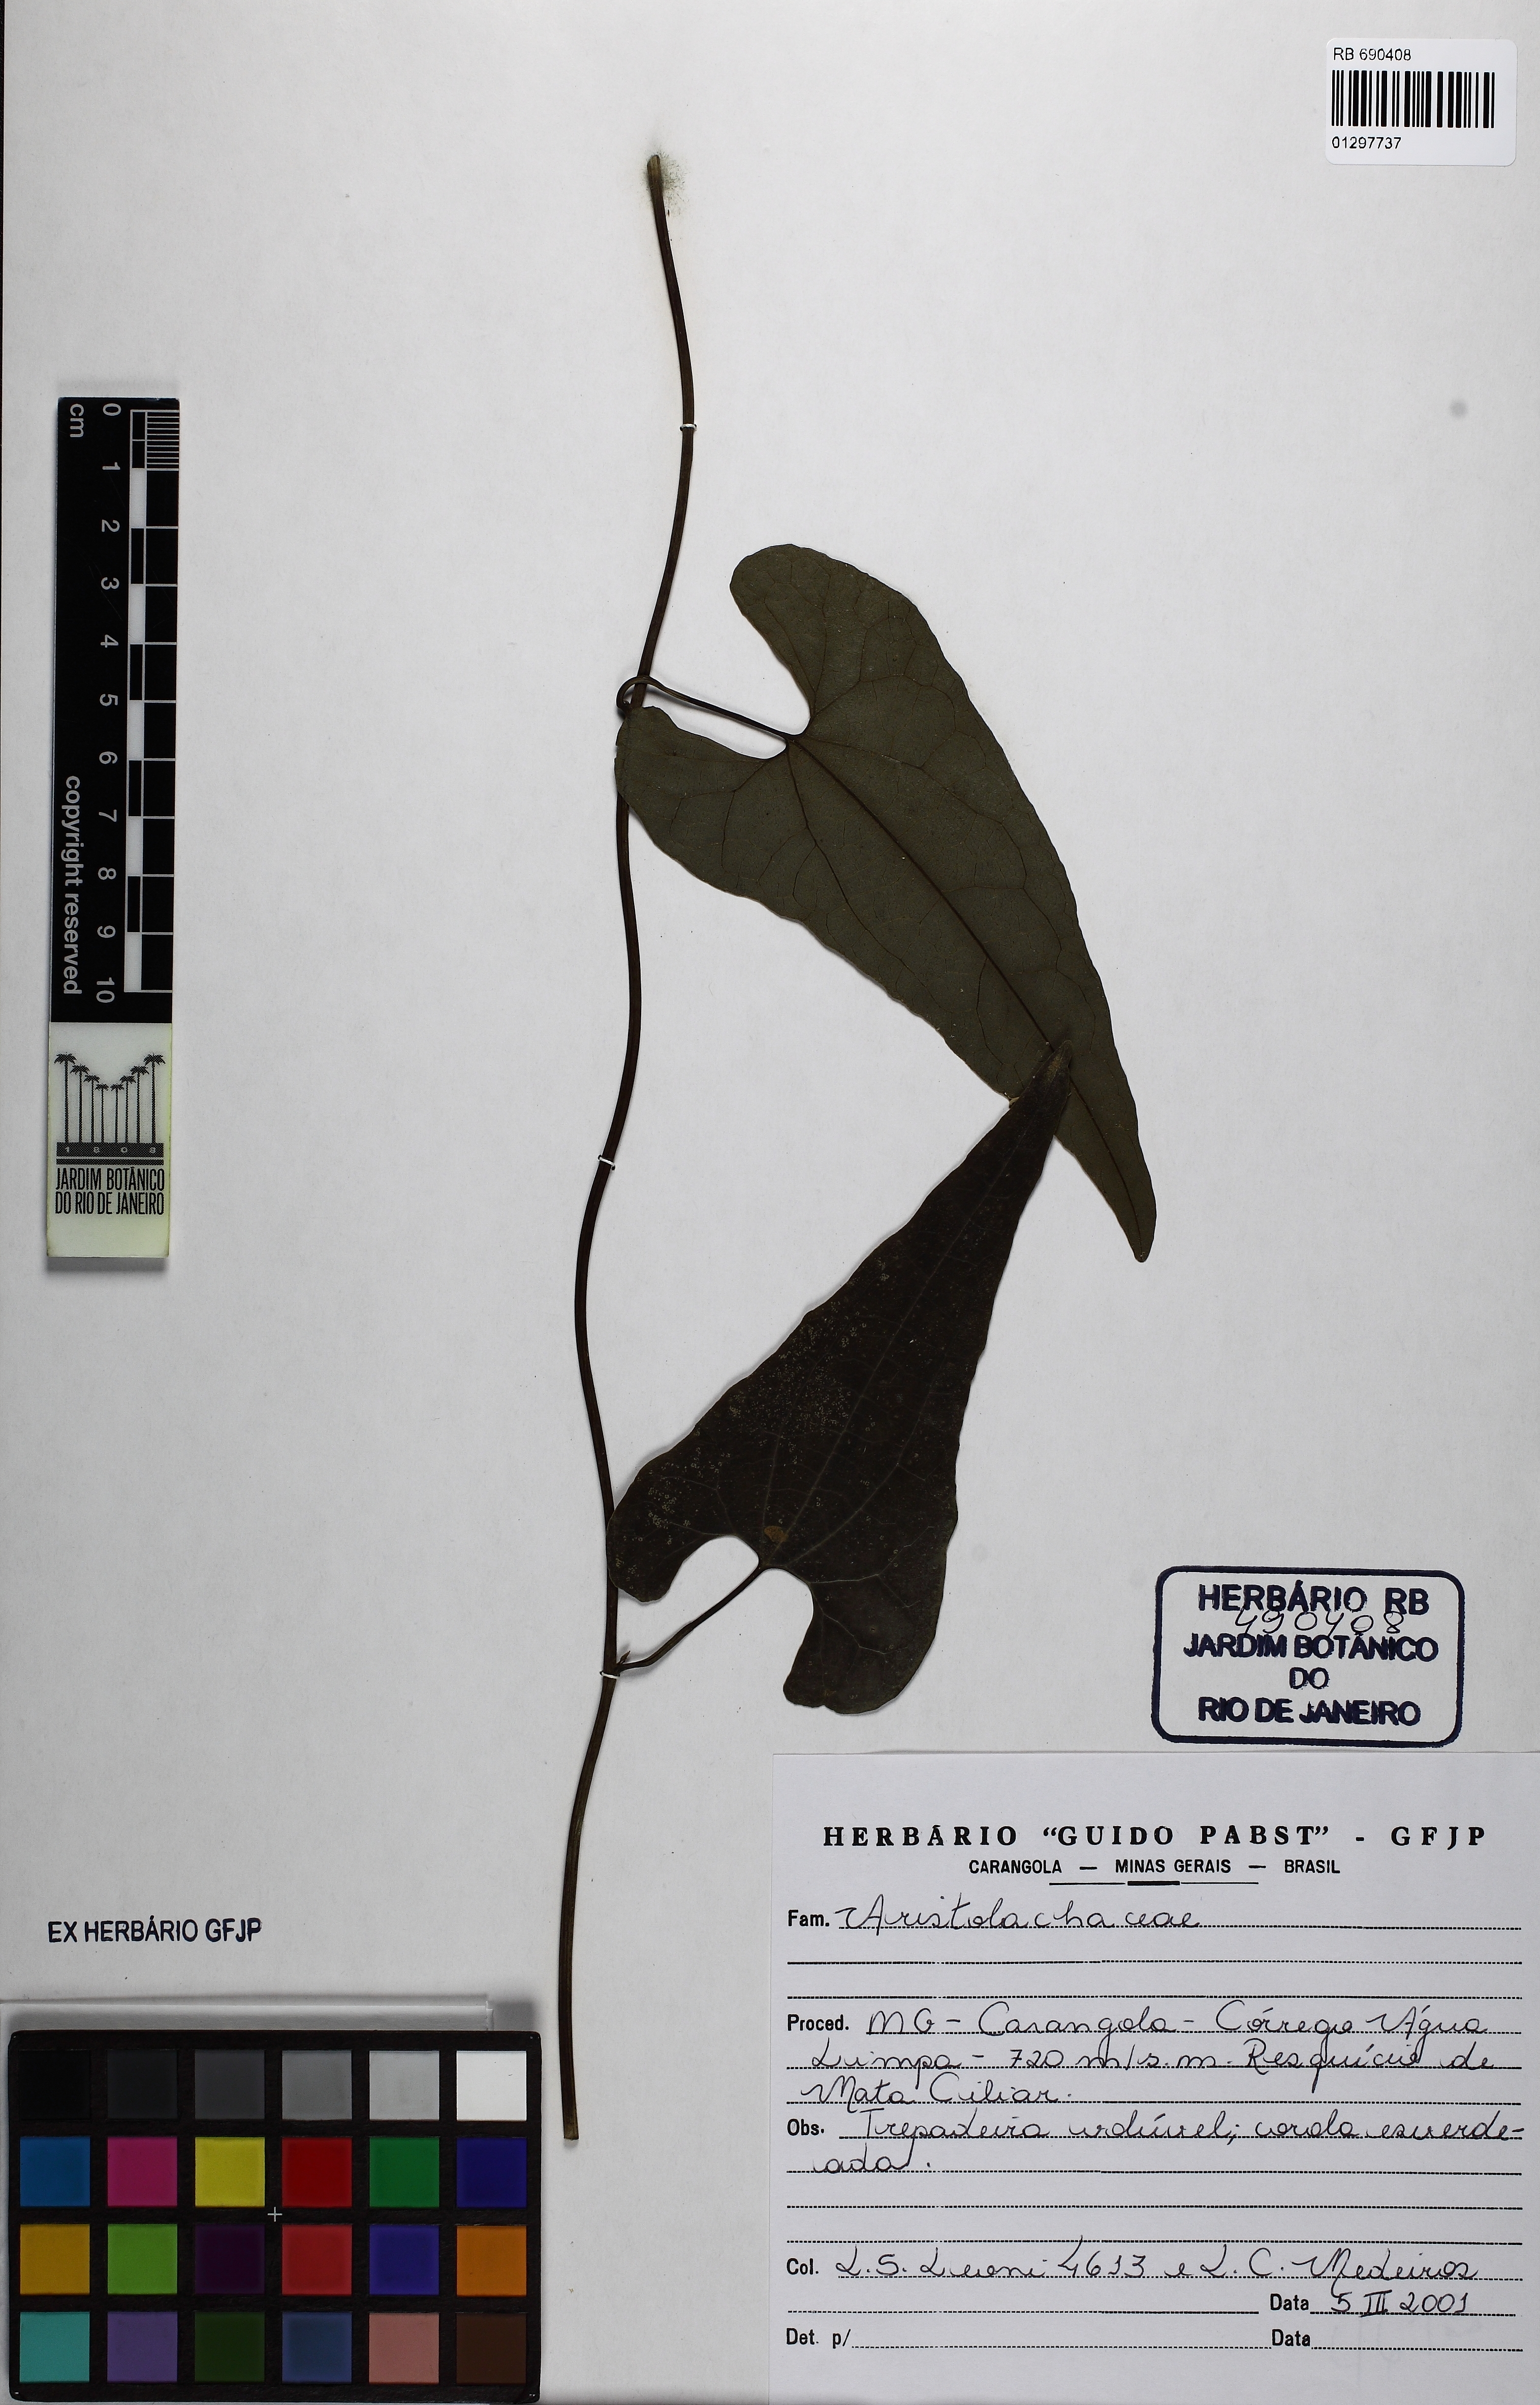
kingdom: Plantae
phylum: Tracheophyta
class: Magnoliopsida
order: Piperales
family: Aristolochiaceae
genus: Aristolochia
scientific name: Aristolochia
